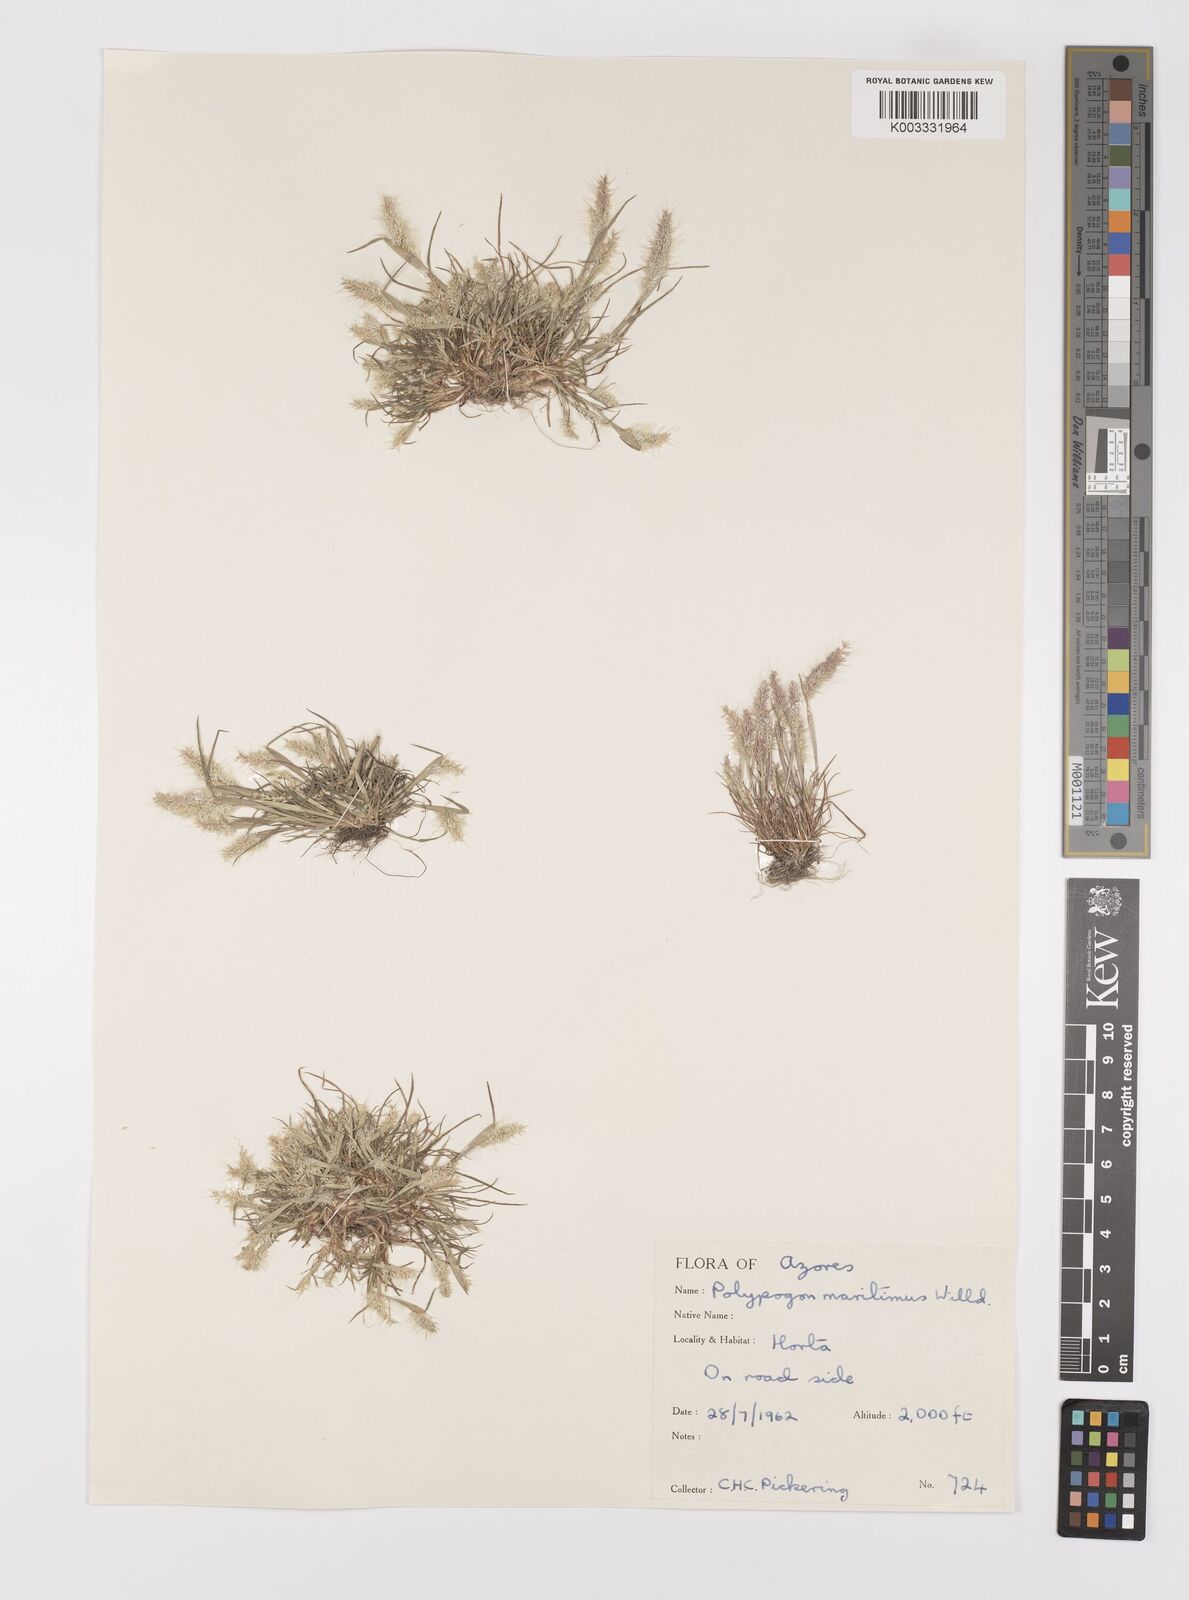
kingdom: Plantae
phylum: Tracheophyta
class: Liliopsida
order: Poales
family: Poaceae
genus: Polypogon
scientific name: Polypogon maritimus
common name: Mediterranean rabbitsfoot grass
